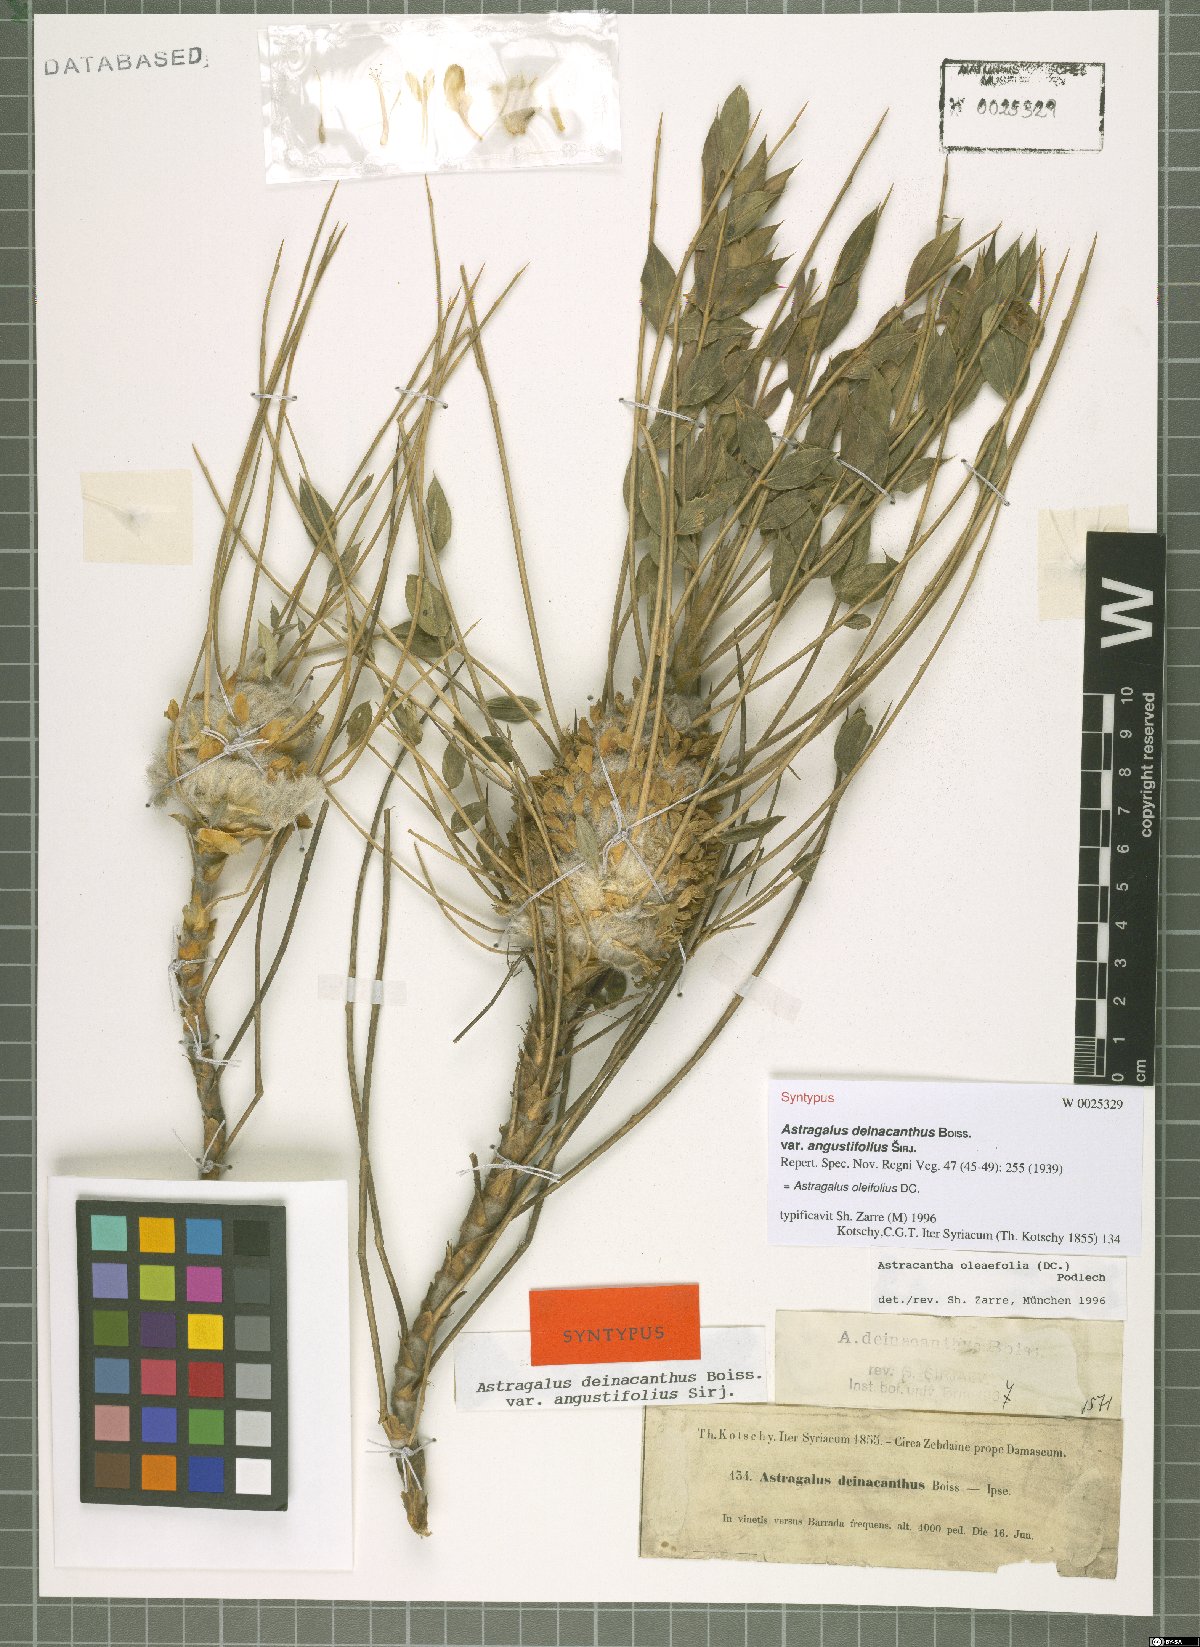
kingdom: Plantae
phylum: Tracheophyta
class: Magnoliopsida
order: Fabales
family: Fabaceae
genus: Astragalus
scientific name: Astragalus oleifolius
